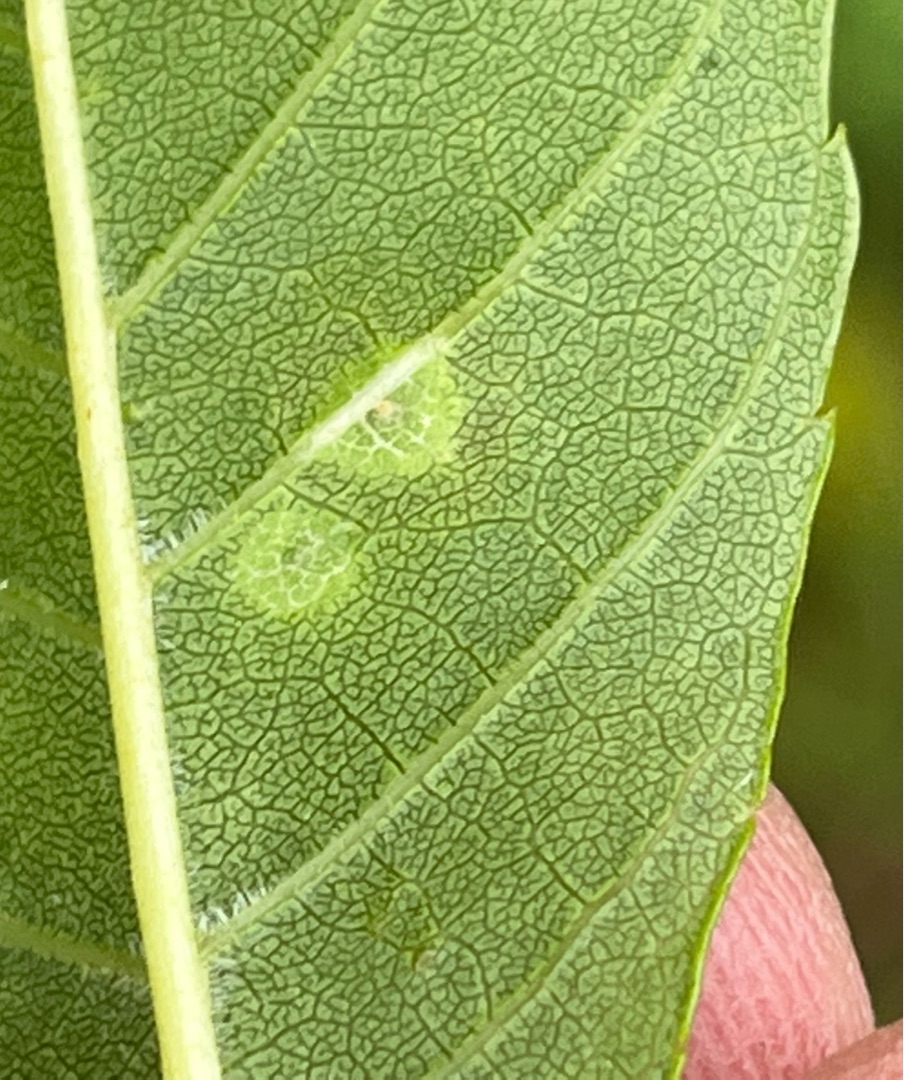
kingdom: Animalia
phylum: Arthropoda
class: Insecta
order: Diptera
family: Cecidomyiidae
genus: Dasineura
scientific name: Dasineura fraxinea
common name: Askeblæregalmyg
